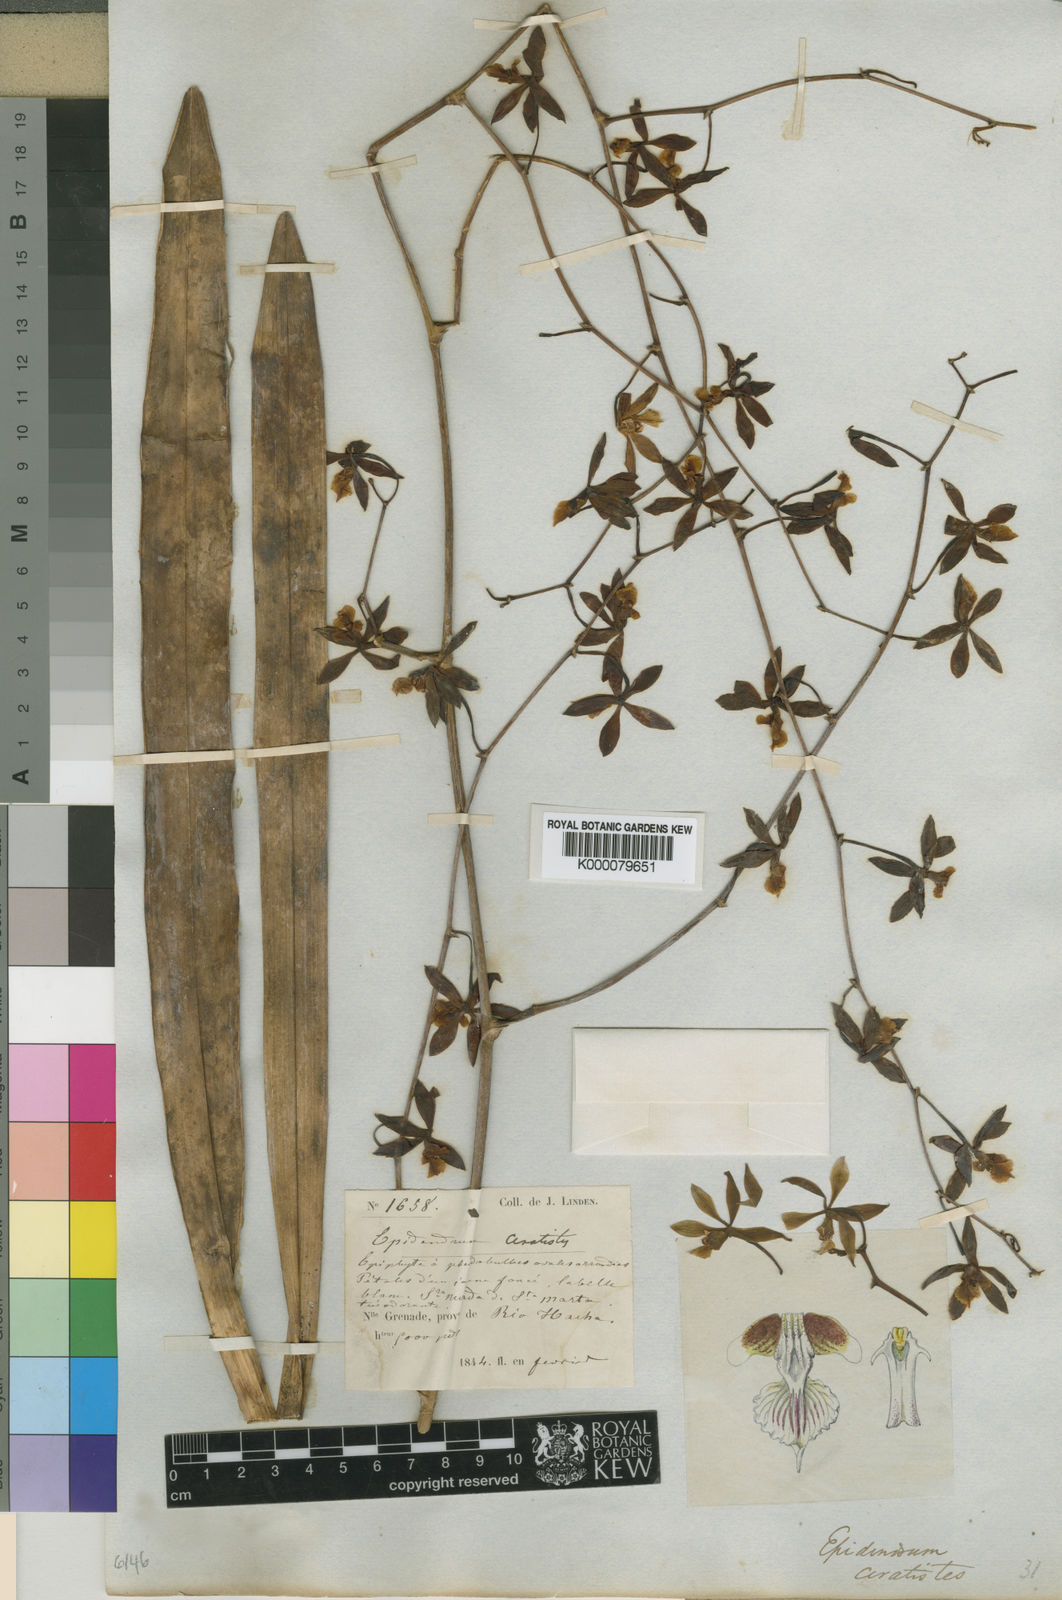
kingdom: Plantae
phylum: Tracheophyta
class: Liliopsida
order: Asparagales
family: Orchidaceae
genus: Encyclia
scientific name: Encyclia ceratistes
